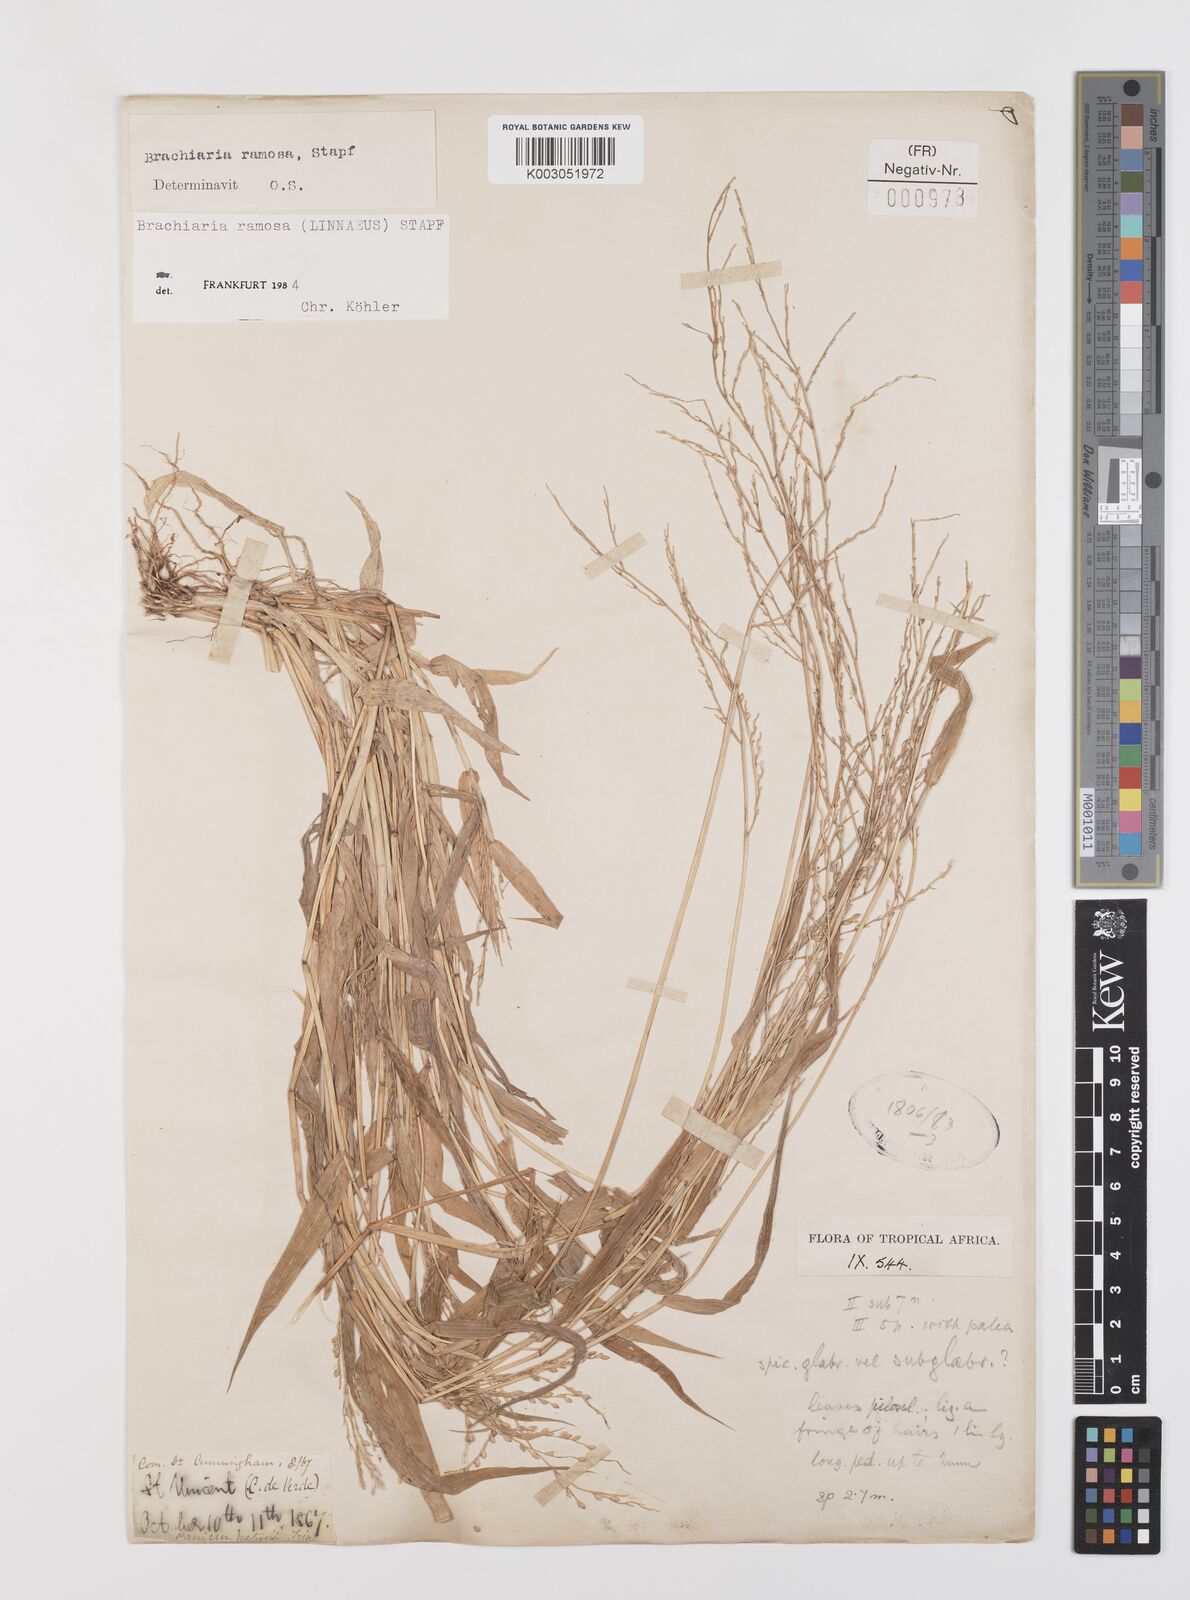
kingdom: Plantae
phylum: Tracheophyta
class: Liliopsida
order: Poales
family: Poaceae
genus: Urochloa
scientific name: Urochloa ramosa
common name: Browntop millet
